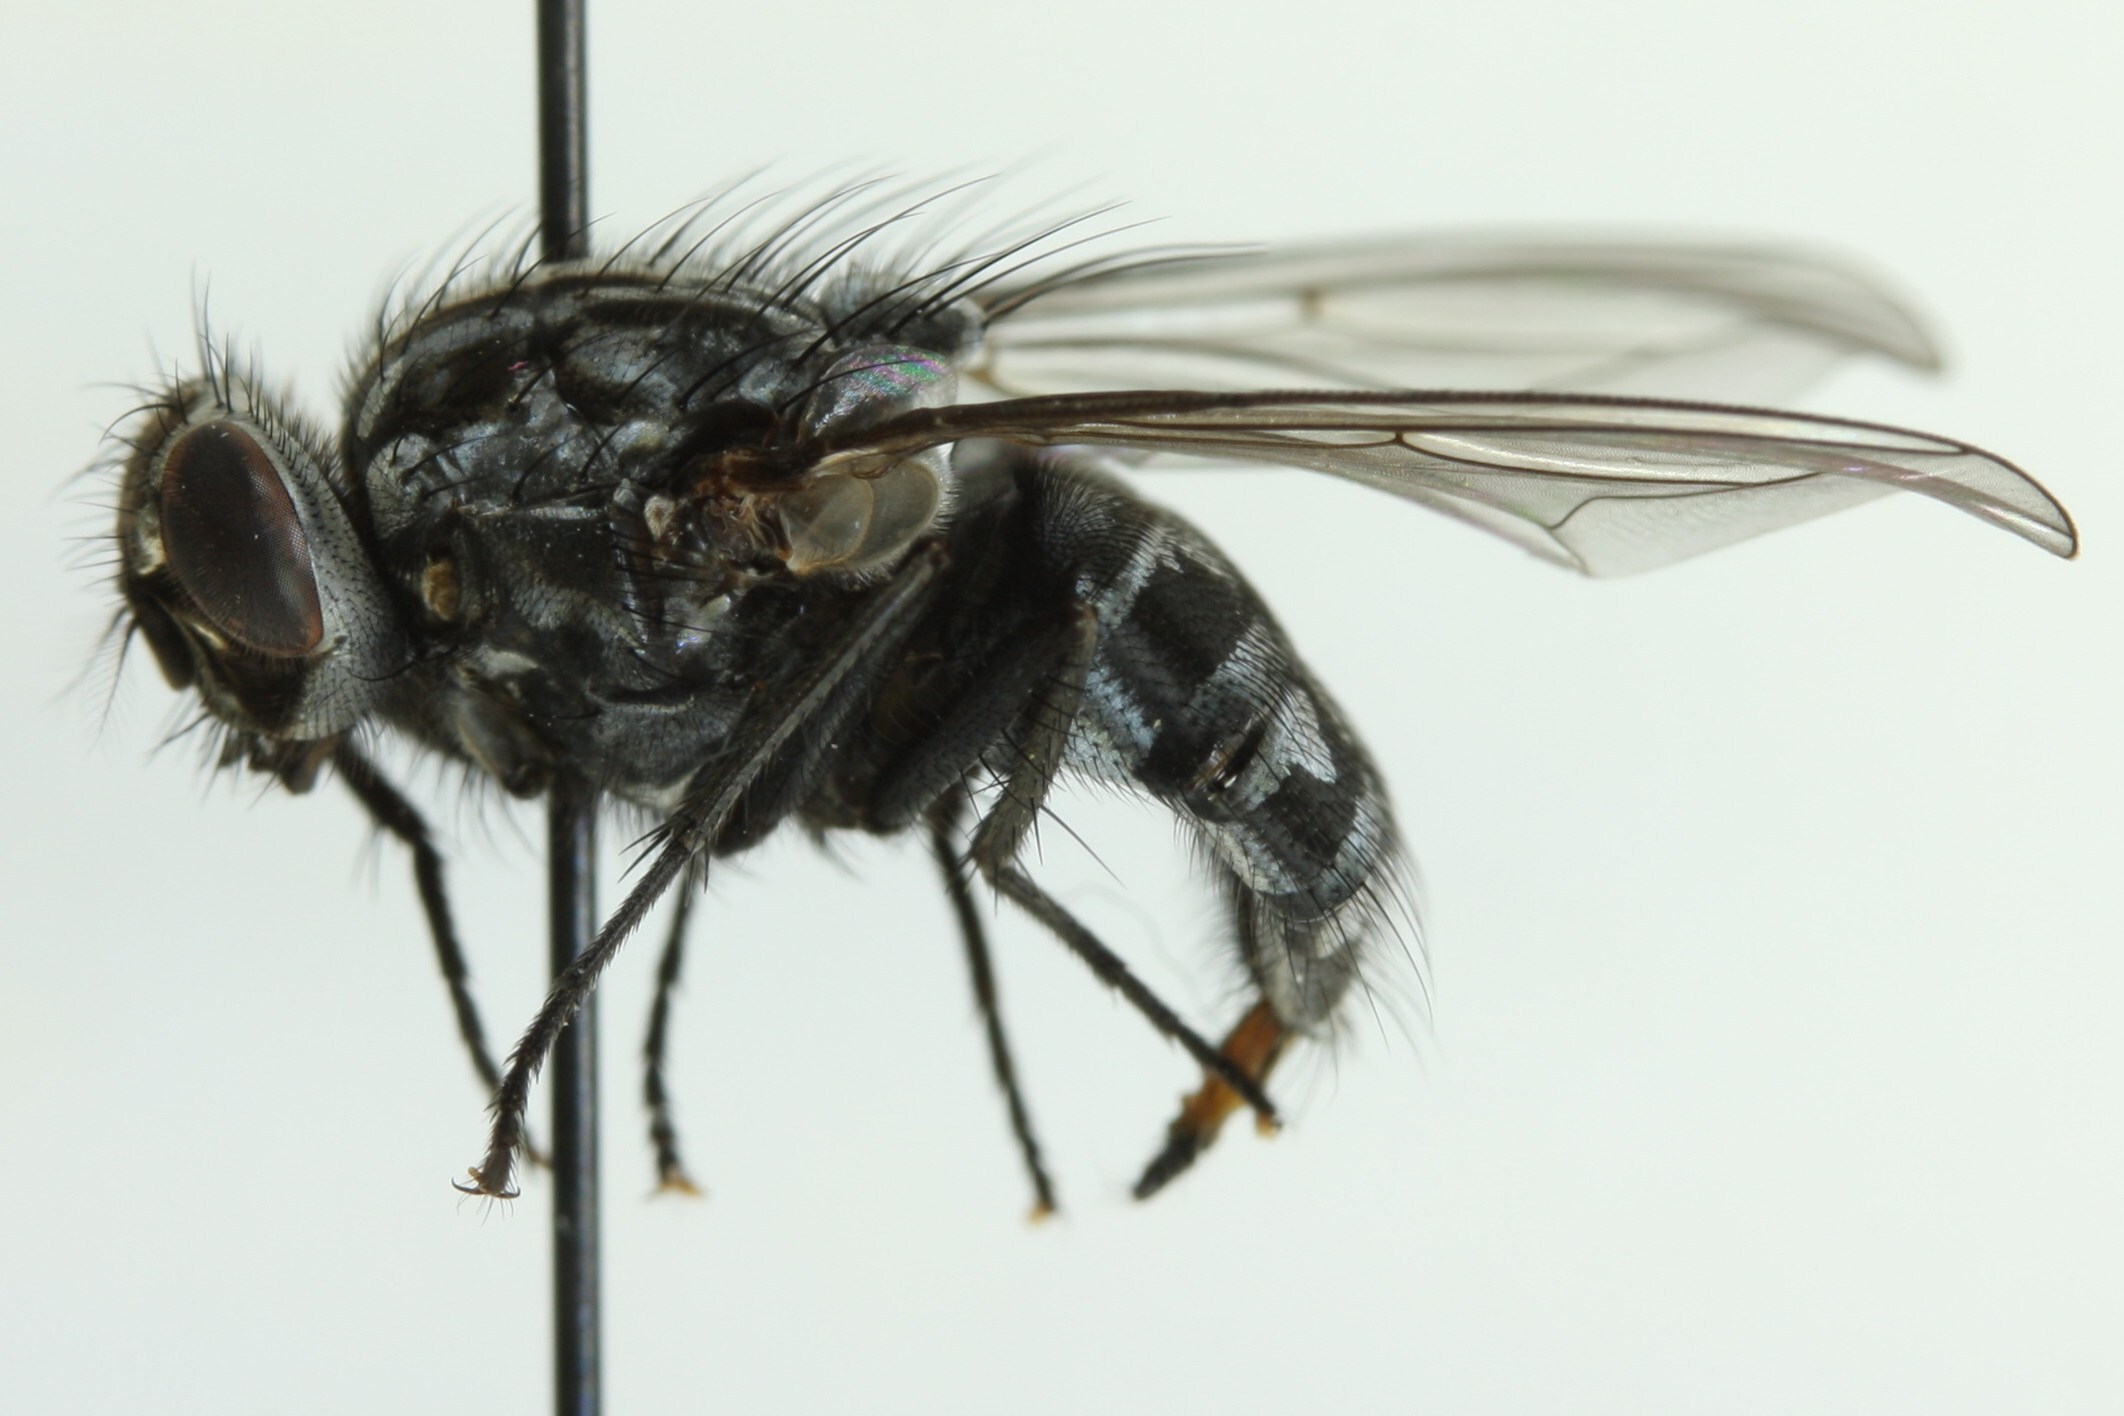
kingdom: Animalia
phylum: Arthropoda
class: Insecta
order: Diptera
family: Muscidae
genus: Polietes
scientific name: Polietes lardaria
